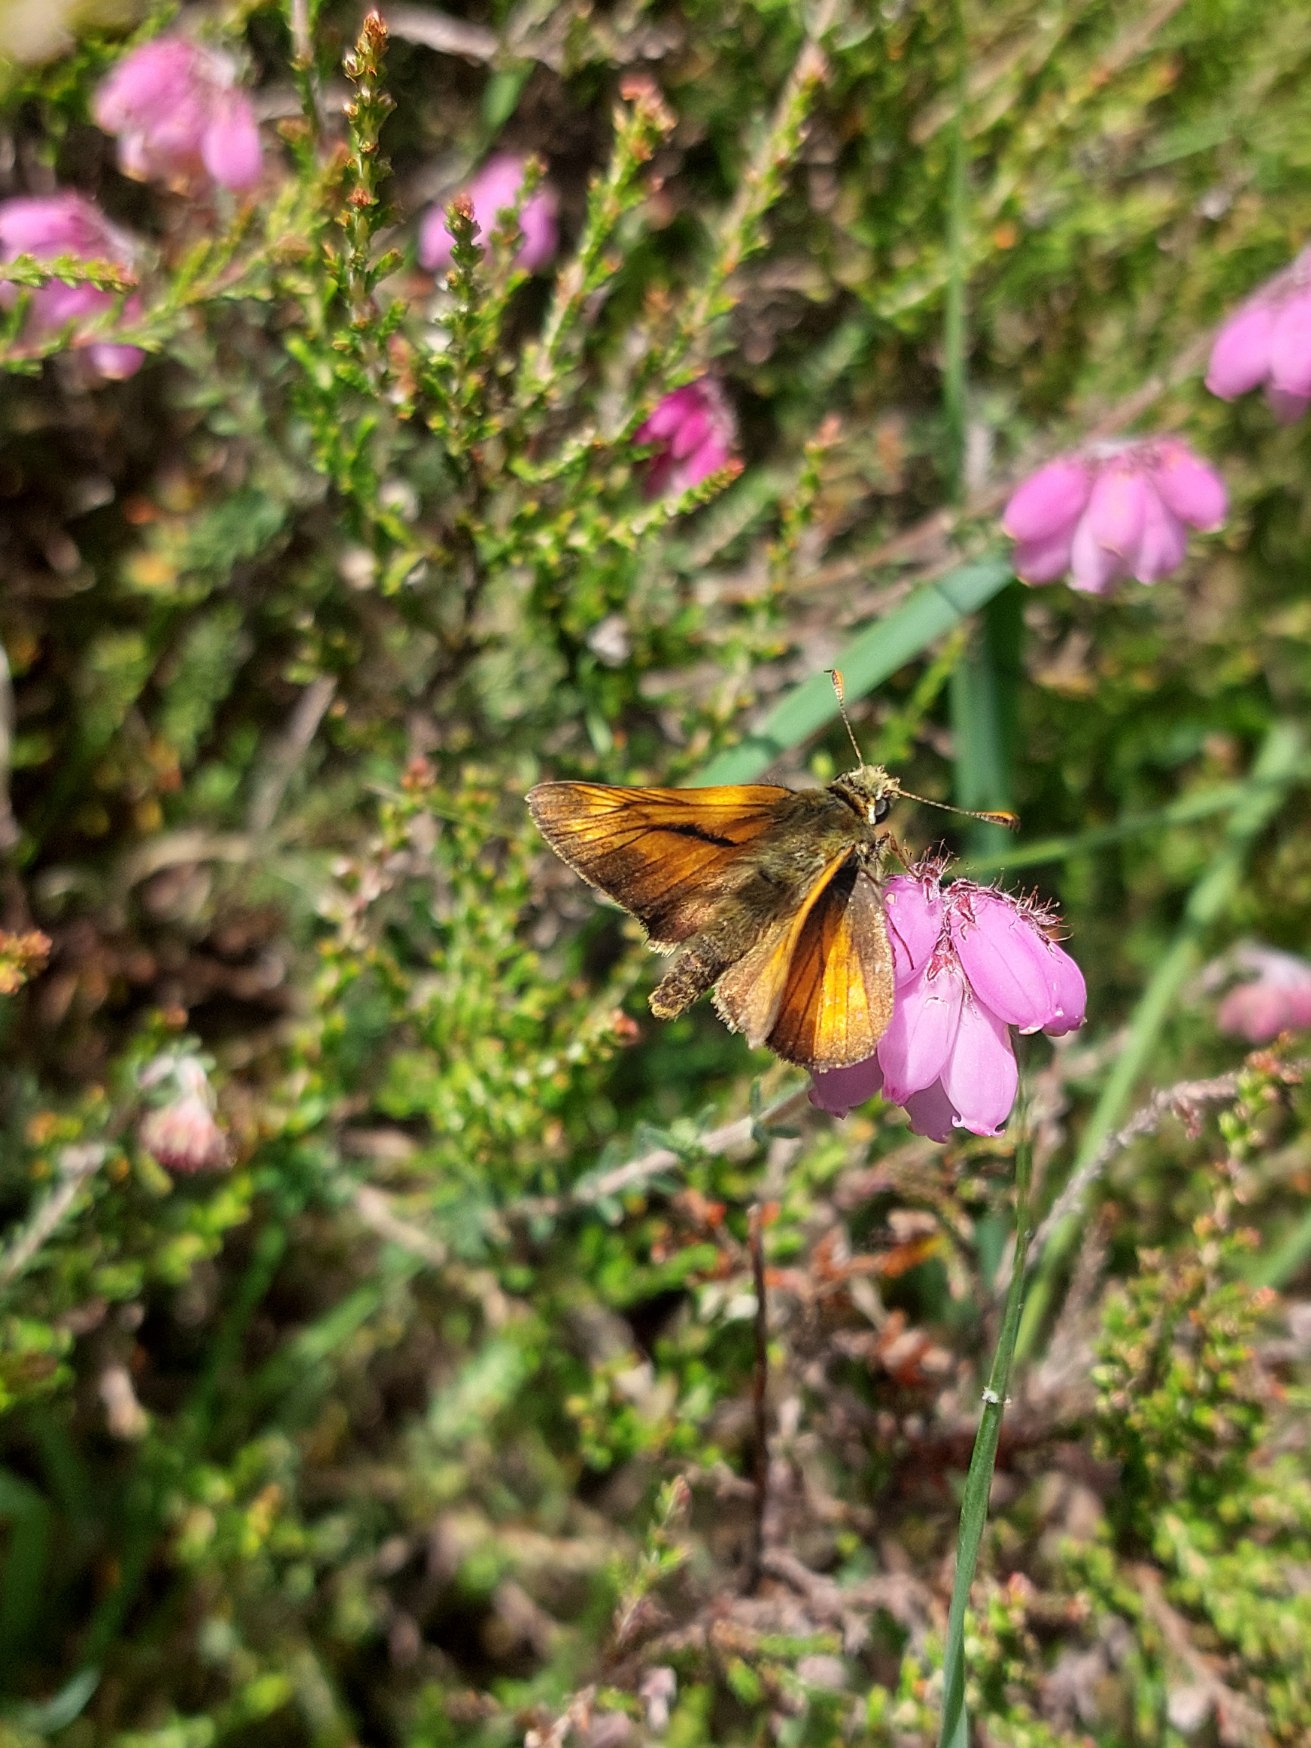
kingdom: Animalia
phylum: Arthropoda
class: Insecta
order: Lepidoptera
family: Hesperiidae
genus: Ochlodes
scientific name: Ochlodes venata
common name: Stor bredpande
